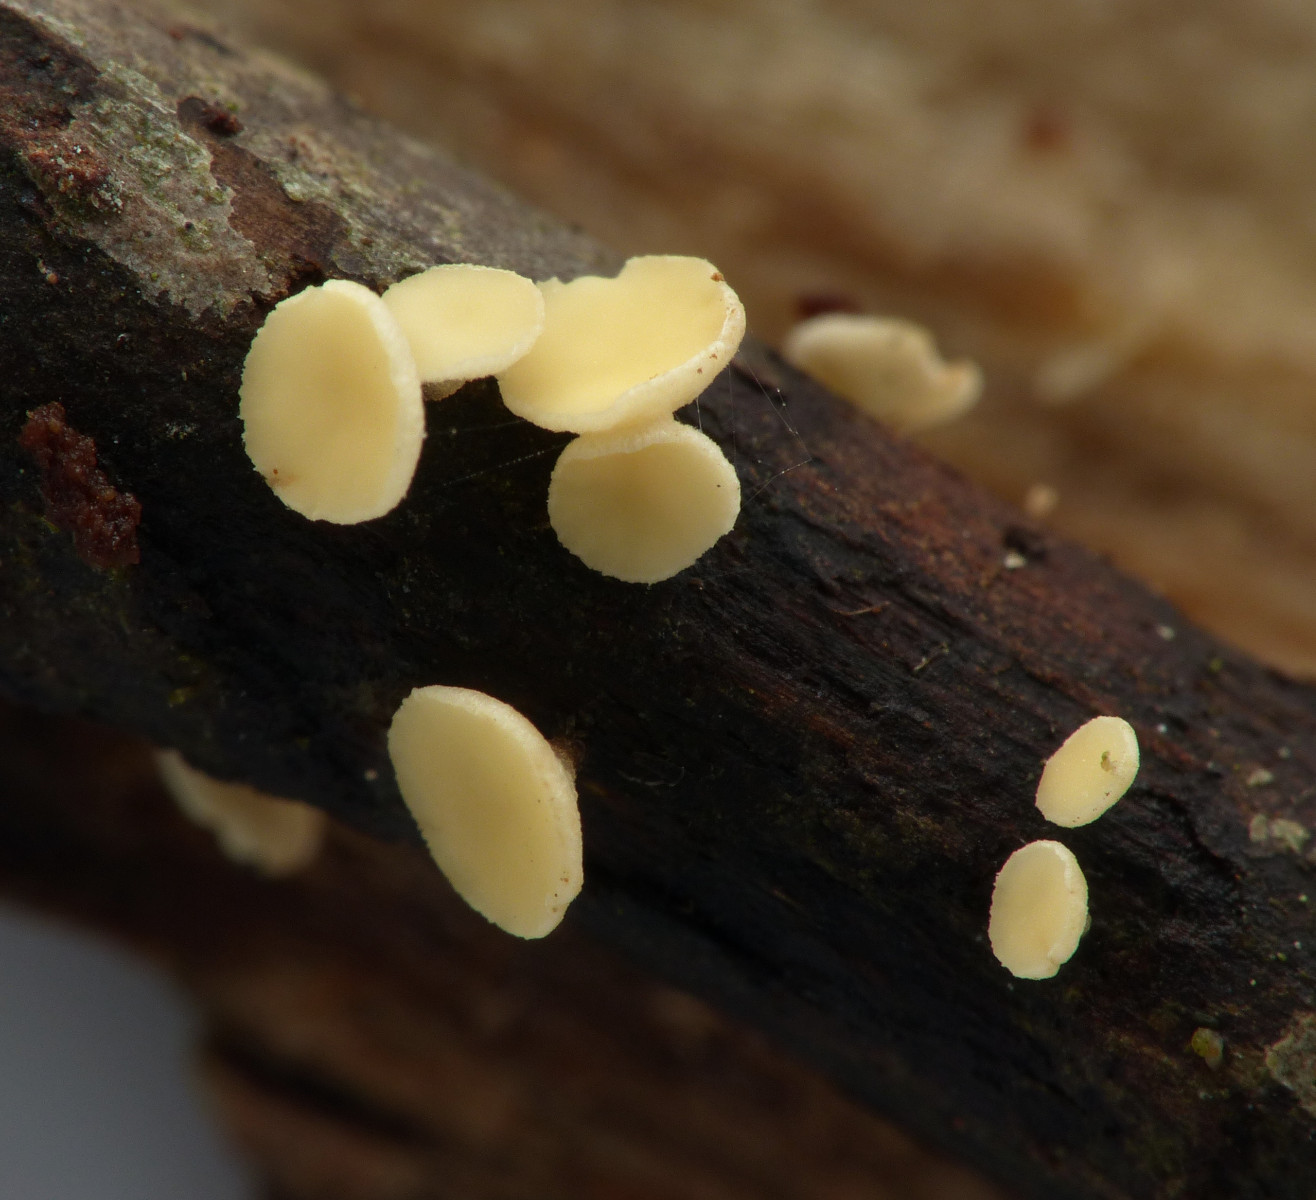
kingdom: Fungi
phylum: Ascomycota
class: Leotiomycetes
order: Helotiales
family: Helotiaceae
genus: Hymenoscyphus
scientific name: Hymenoscyphus
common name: stilkskive
